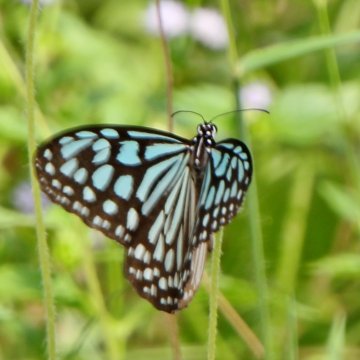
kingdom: Animalia
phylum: Arthropoda
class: Insecta
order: Lepidoptera
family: Nymphalidae
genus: Ideopsis
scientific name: Ideopsis similis
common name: Ceylon Blue Glassy Tiger
